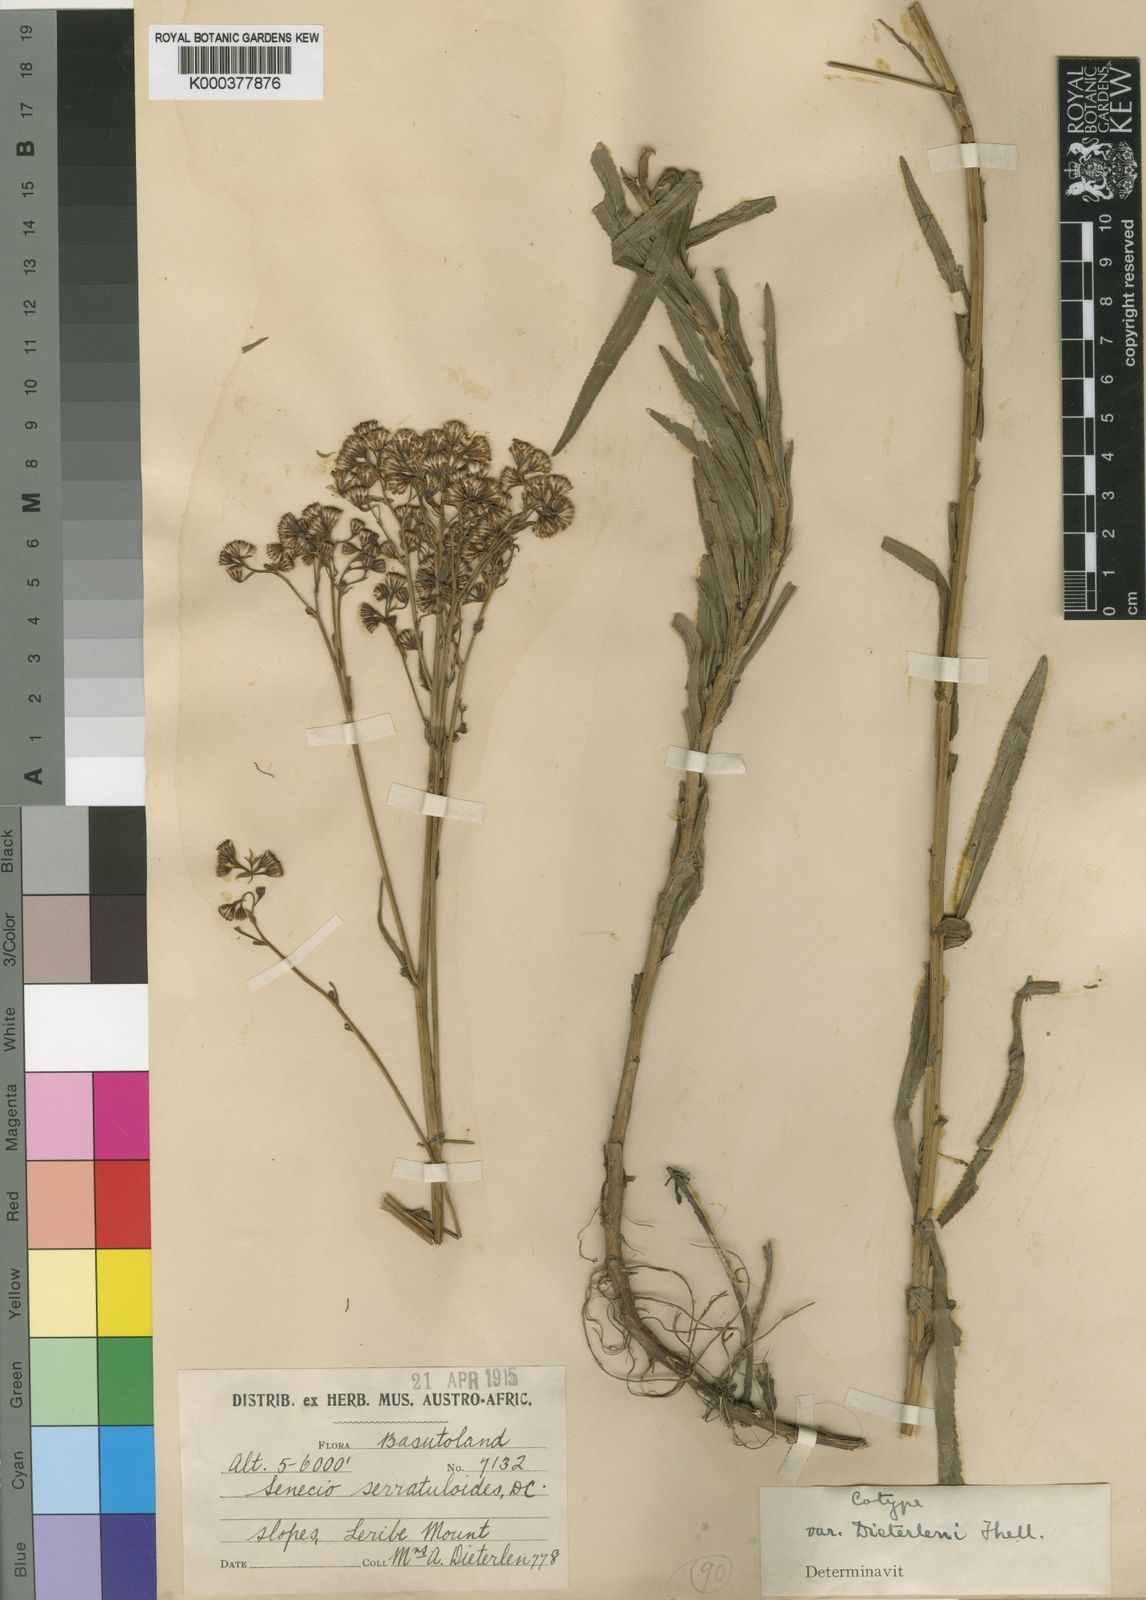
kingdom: Plantae
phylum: Tracheophyta
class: Magnoliopsida
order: Asterales
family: Asteraceae
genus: Senecio
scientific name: Senecio serratuloides
